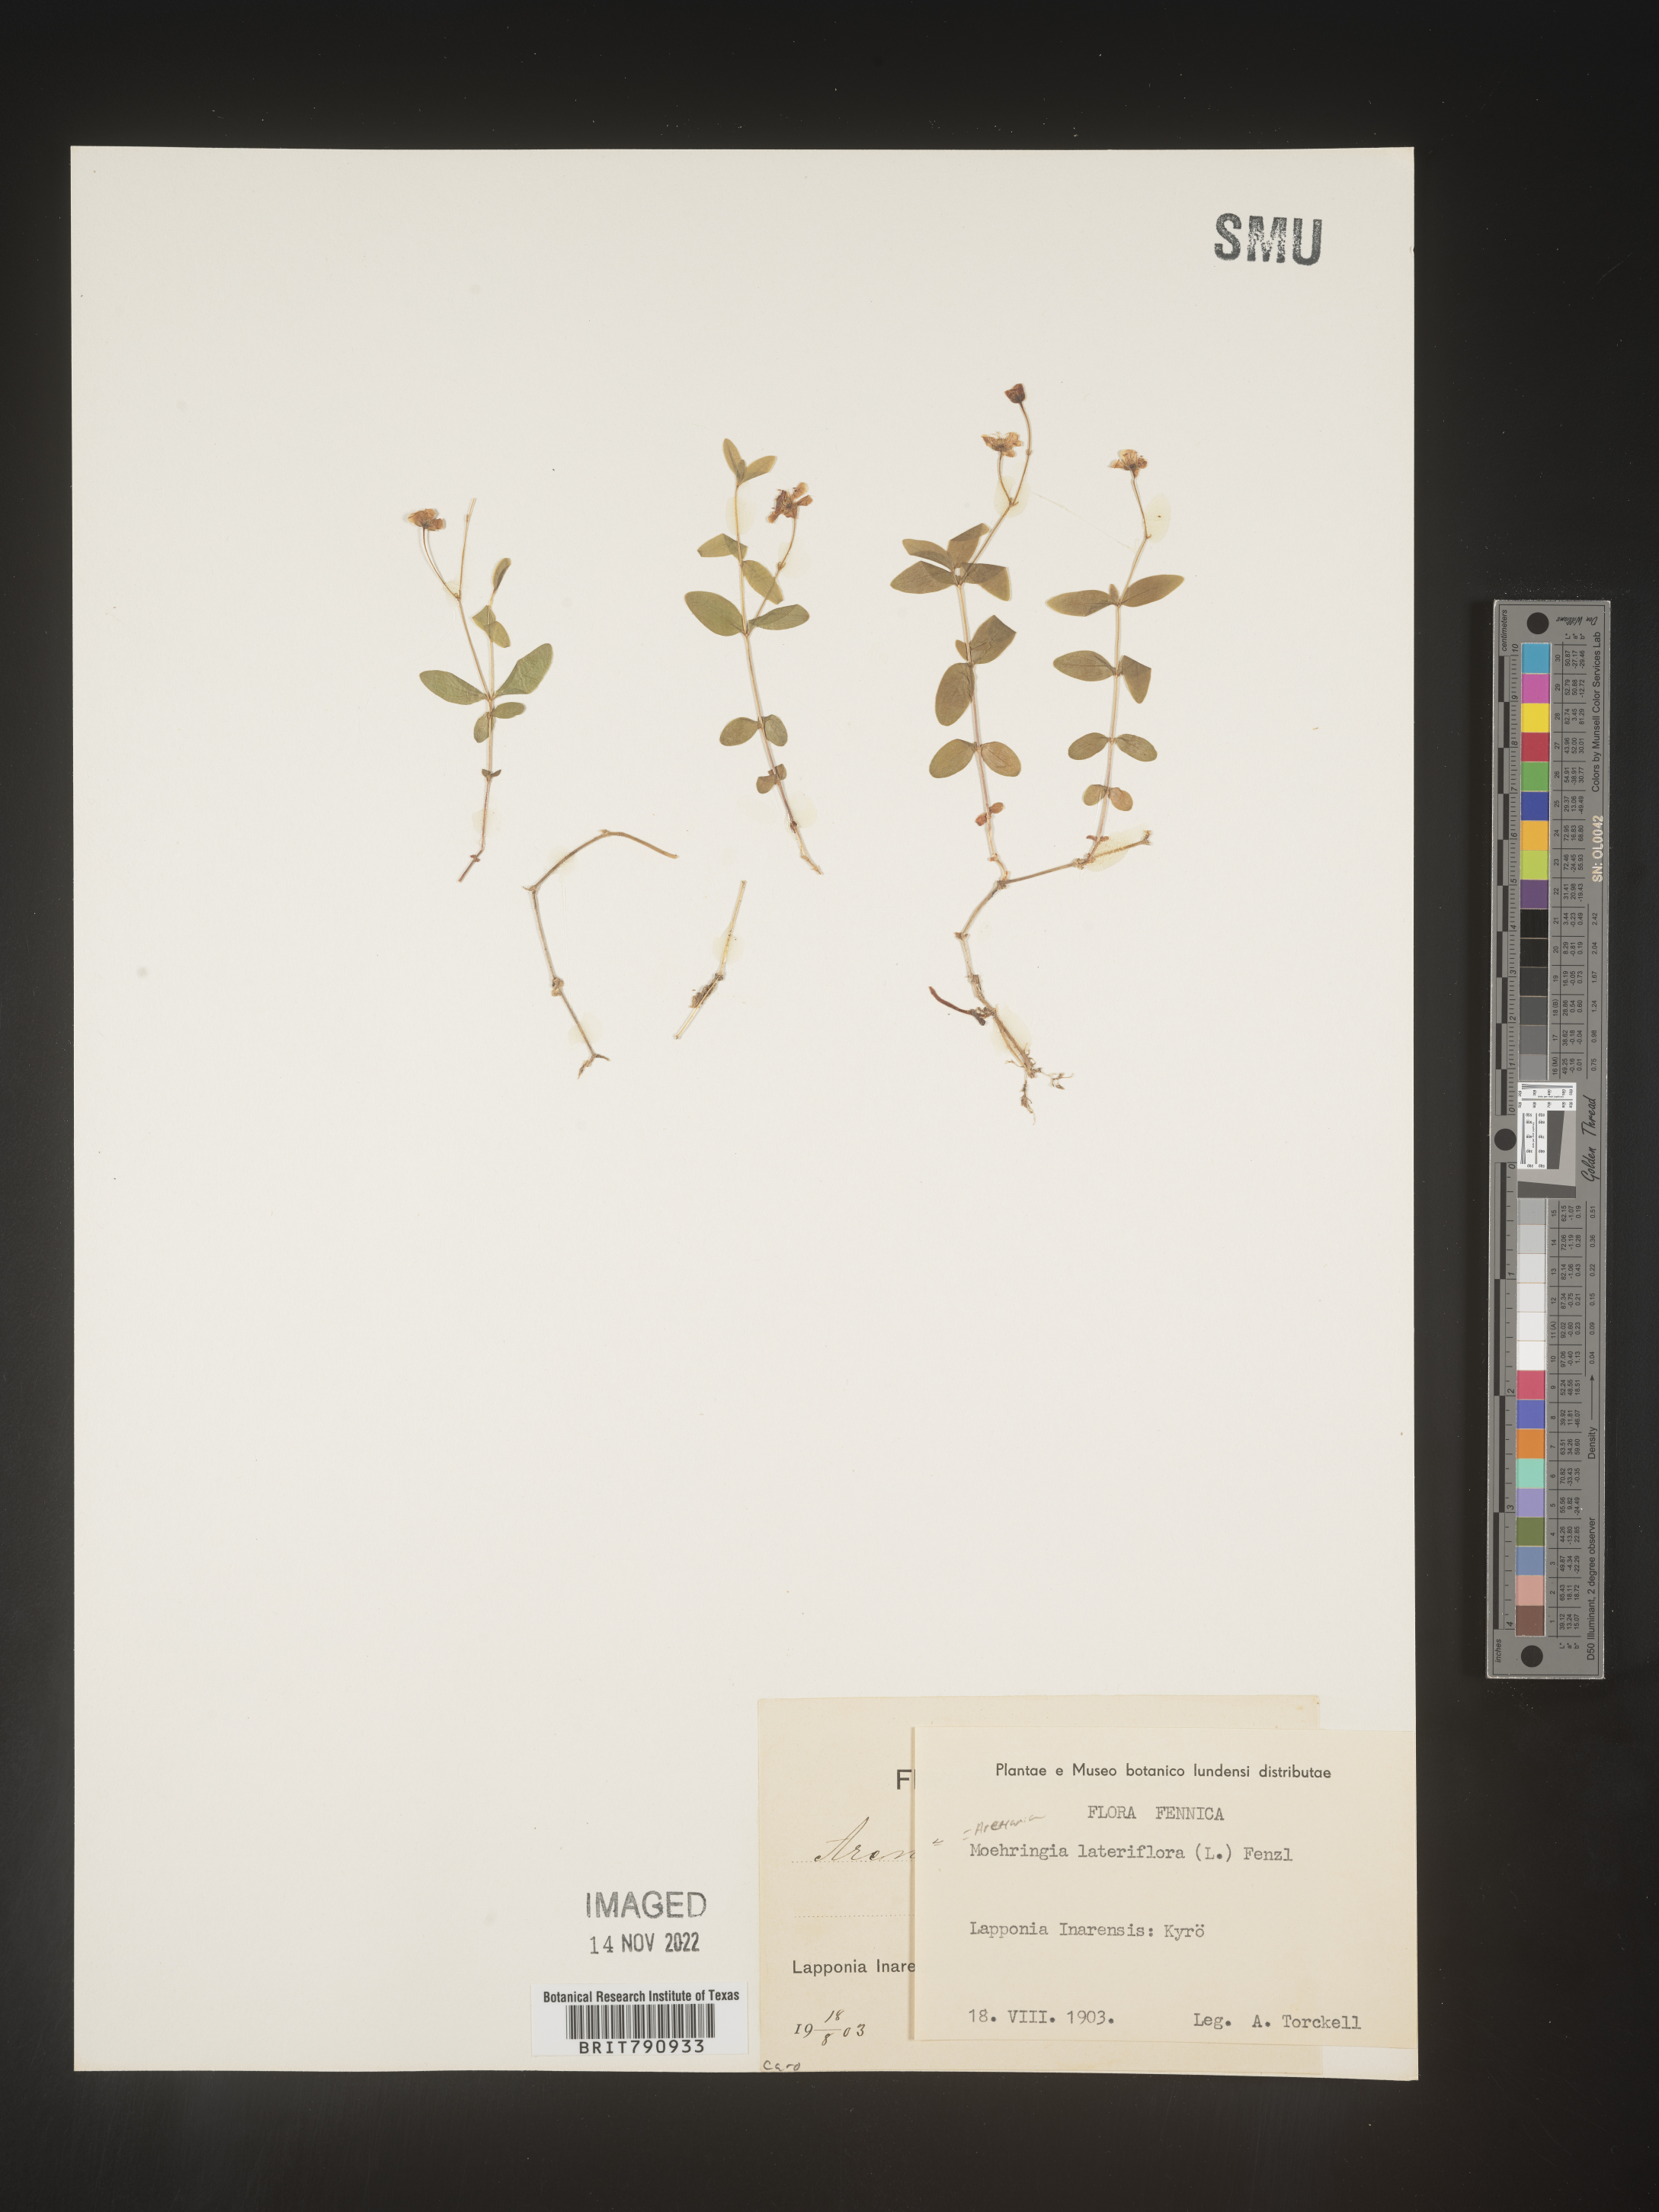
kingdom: Plantae
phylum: Tracheophyta
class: Magnoliopsida
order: Caryophyllales
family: Caryophyllaceae
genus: Moehringia
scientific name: Moehringia
